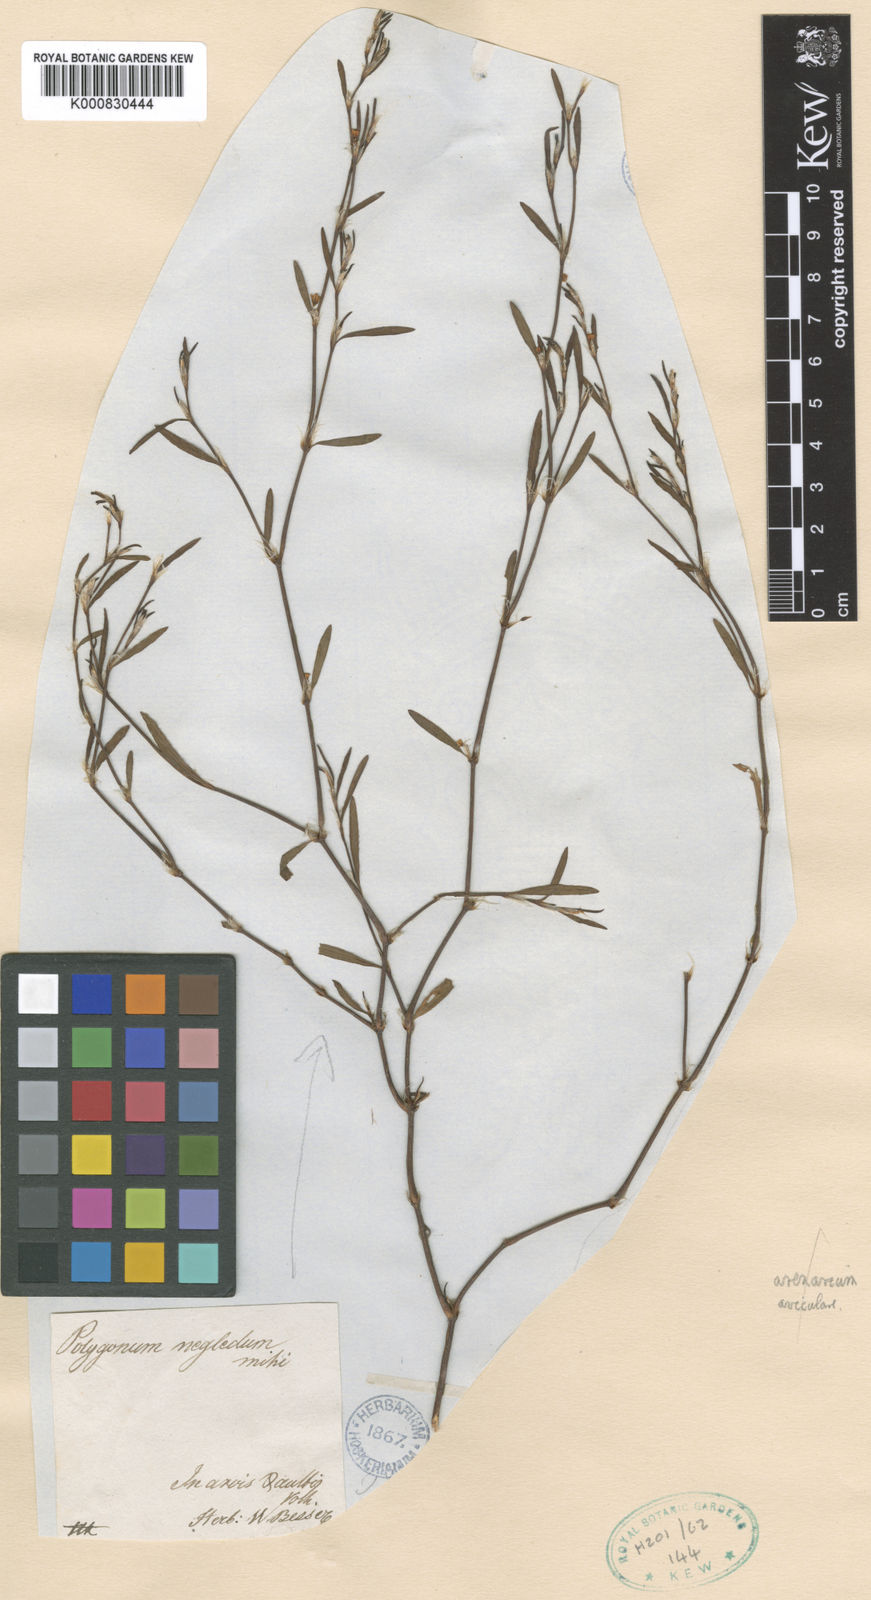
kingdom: Plantae
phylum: Tracheophyta
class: Magnoliopsida
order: Caryophyllales
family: Polygonaceae
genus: Polygonum
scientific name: Polygonum aviculare
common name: Prostrate knotweed
